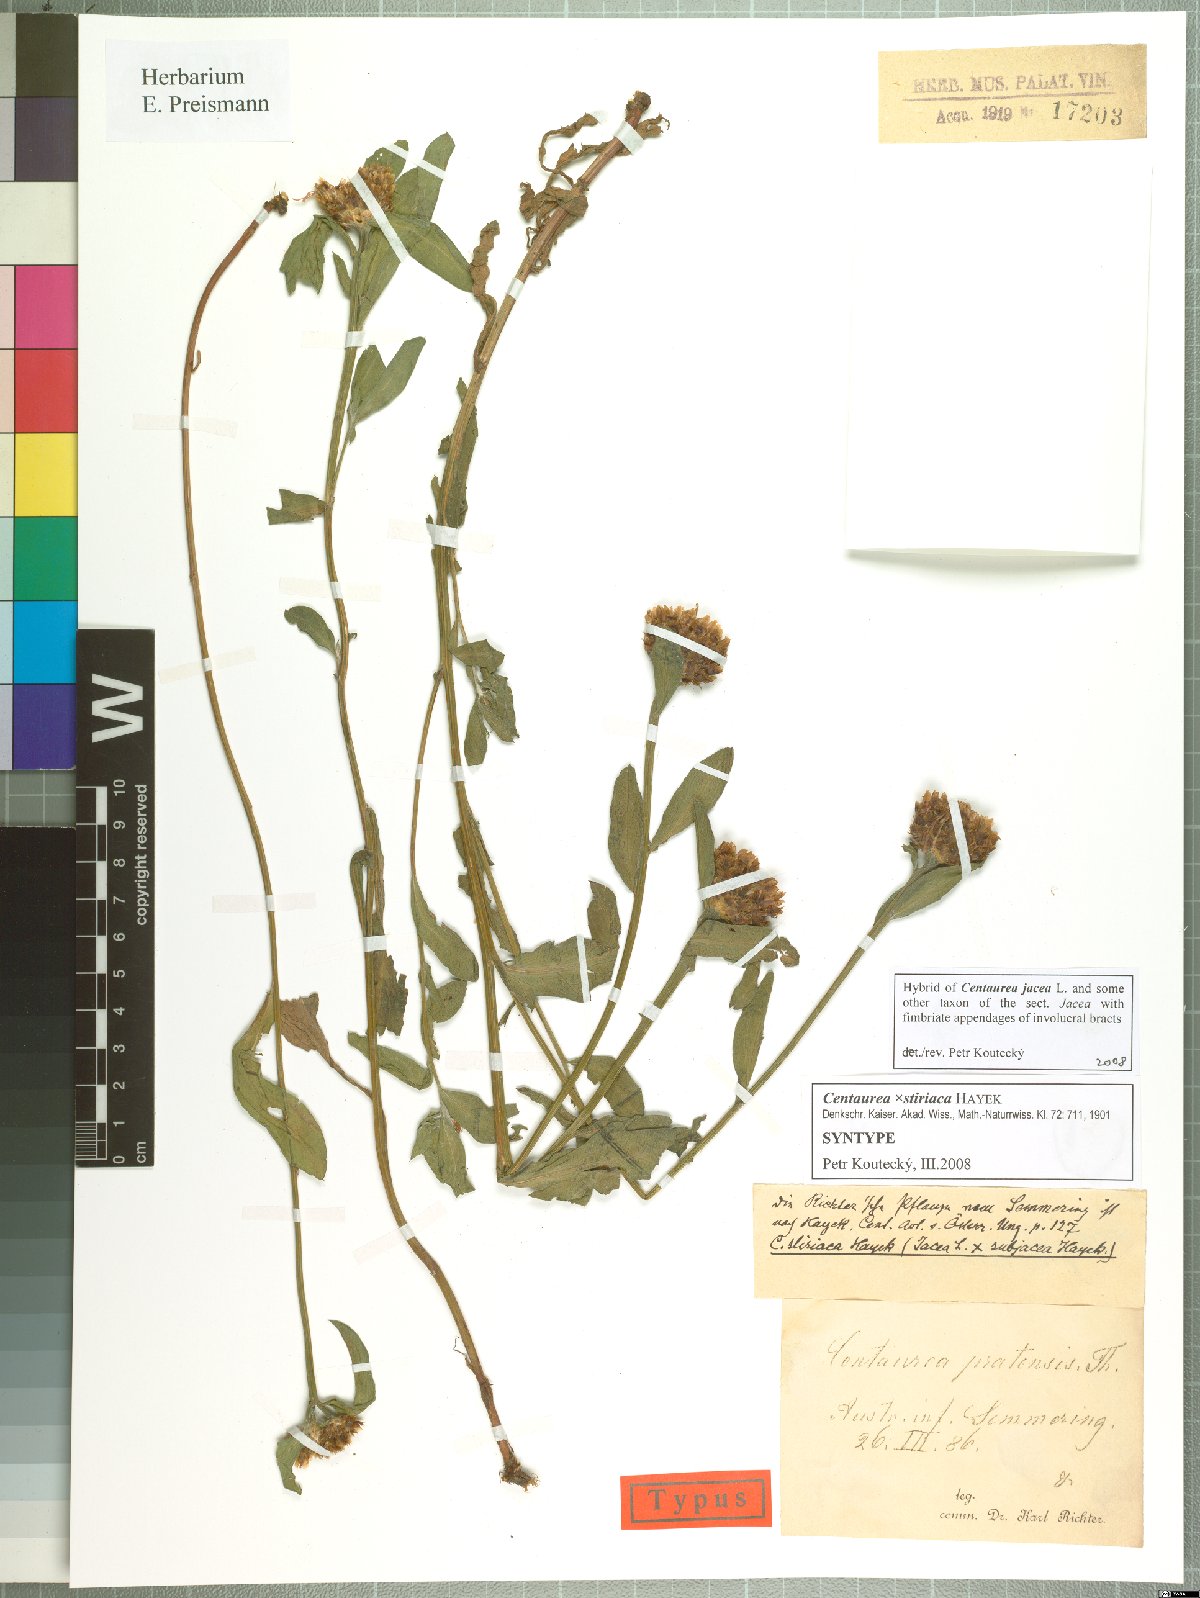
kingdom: Plantae
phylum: Tracheophyta
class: Magnoliopsida
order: Asterales
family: Asteraceae
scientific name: Asteraceae
